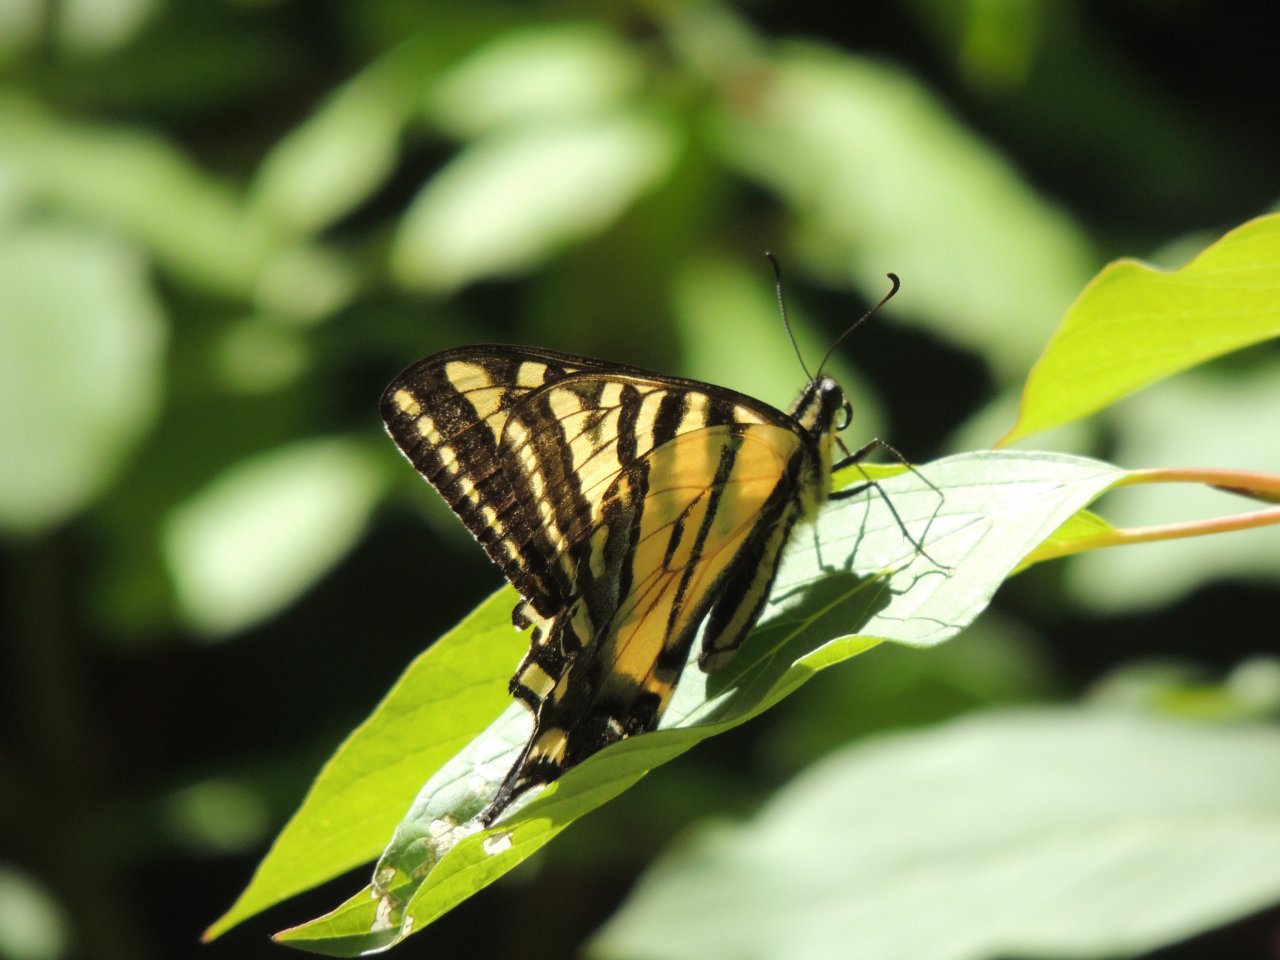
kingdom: Animalia
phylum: Arthropoda
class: Insecta
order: Lepidoptera
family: Papilionidae
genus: Pterourus
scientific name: Pterourus rutulus
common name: Western Tiger Swallowtail
